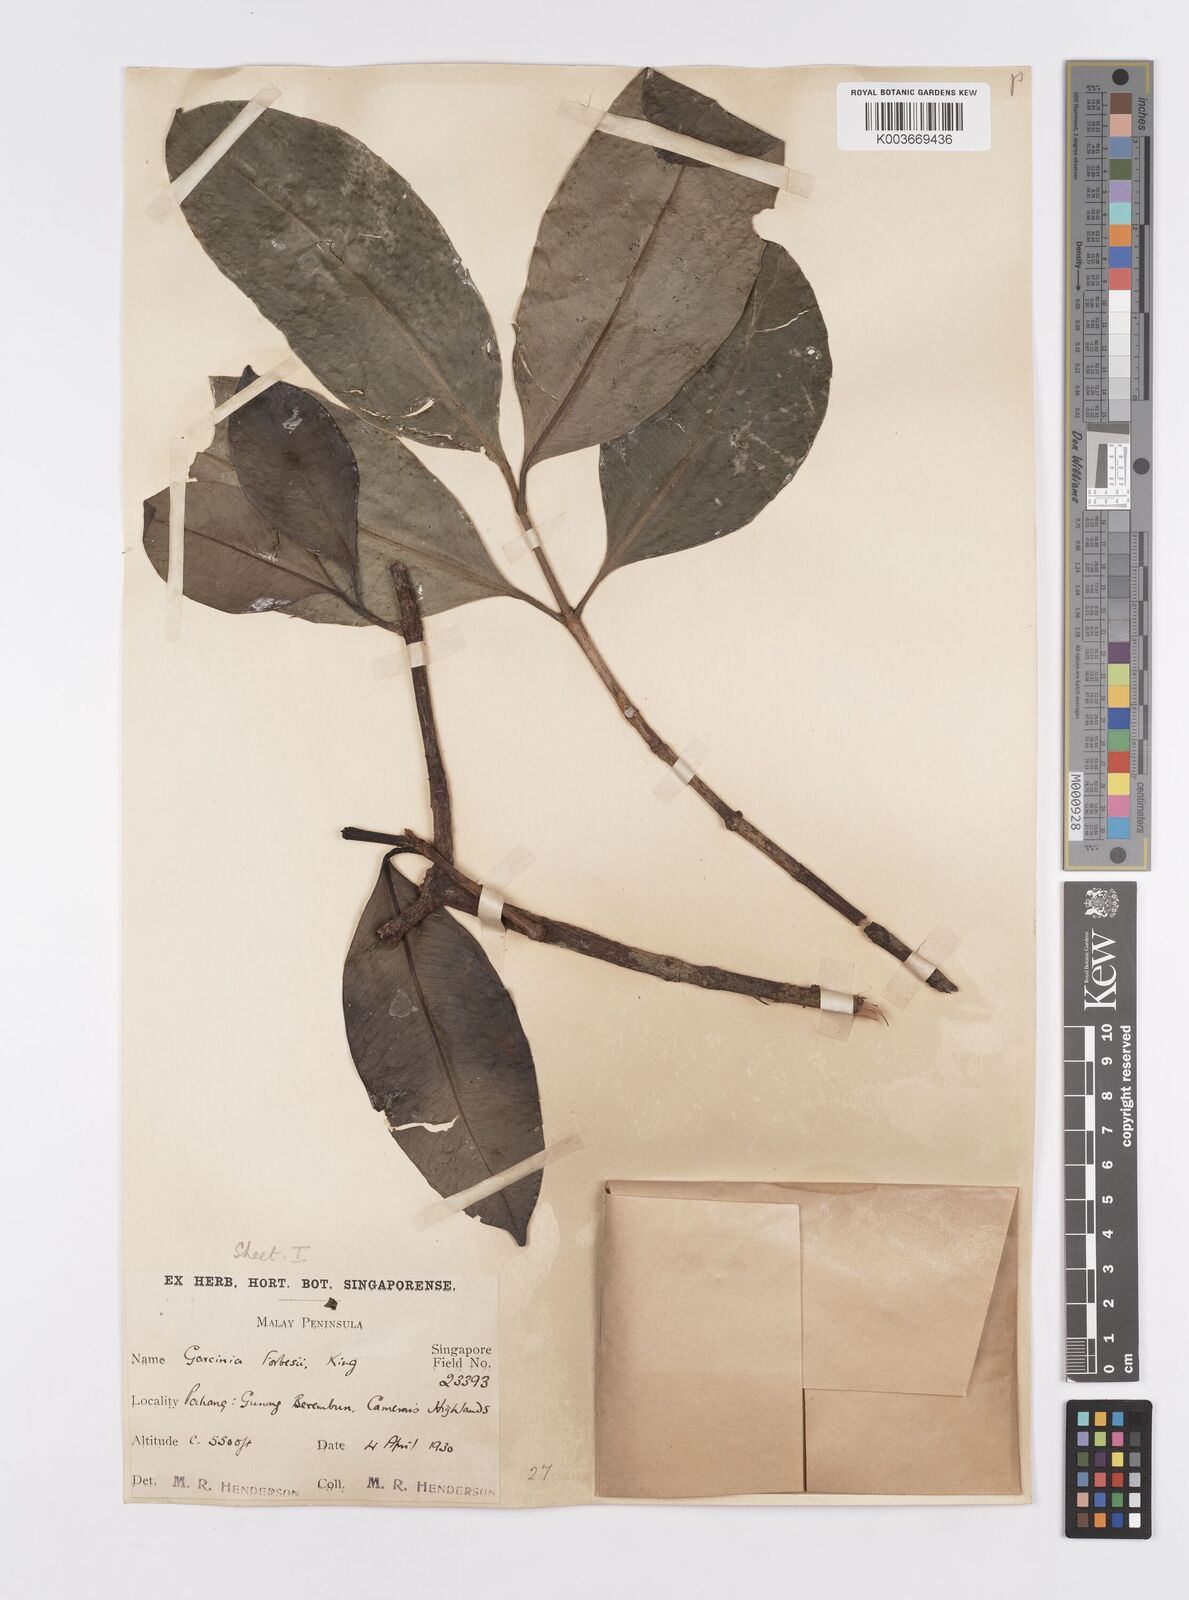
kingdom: Plantae
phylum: Tracheophyta
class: Magnoliopsida
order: Malpighiales
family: Clusiaceae
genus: Garcinia
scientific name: Garcinia forbesii
